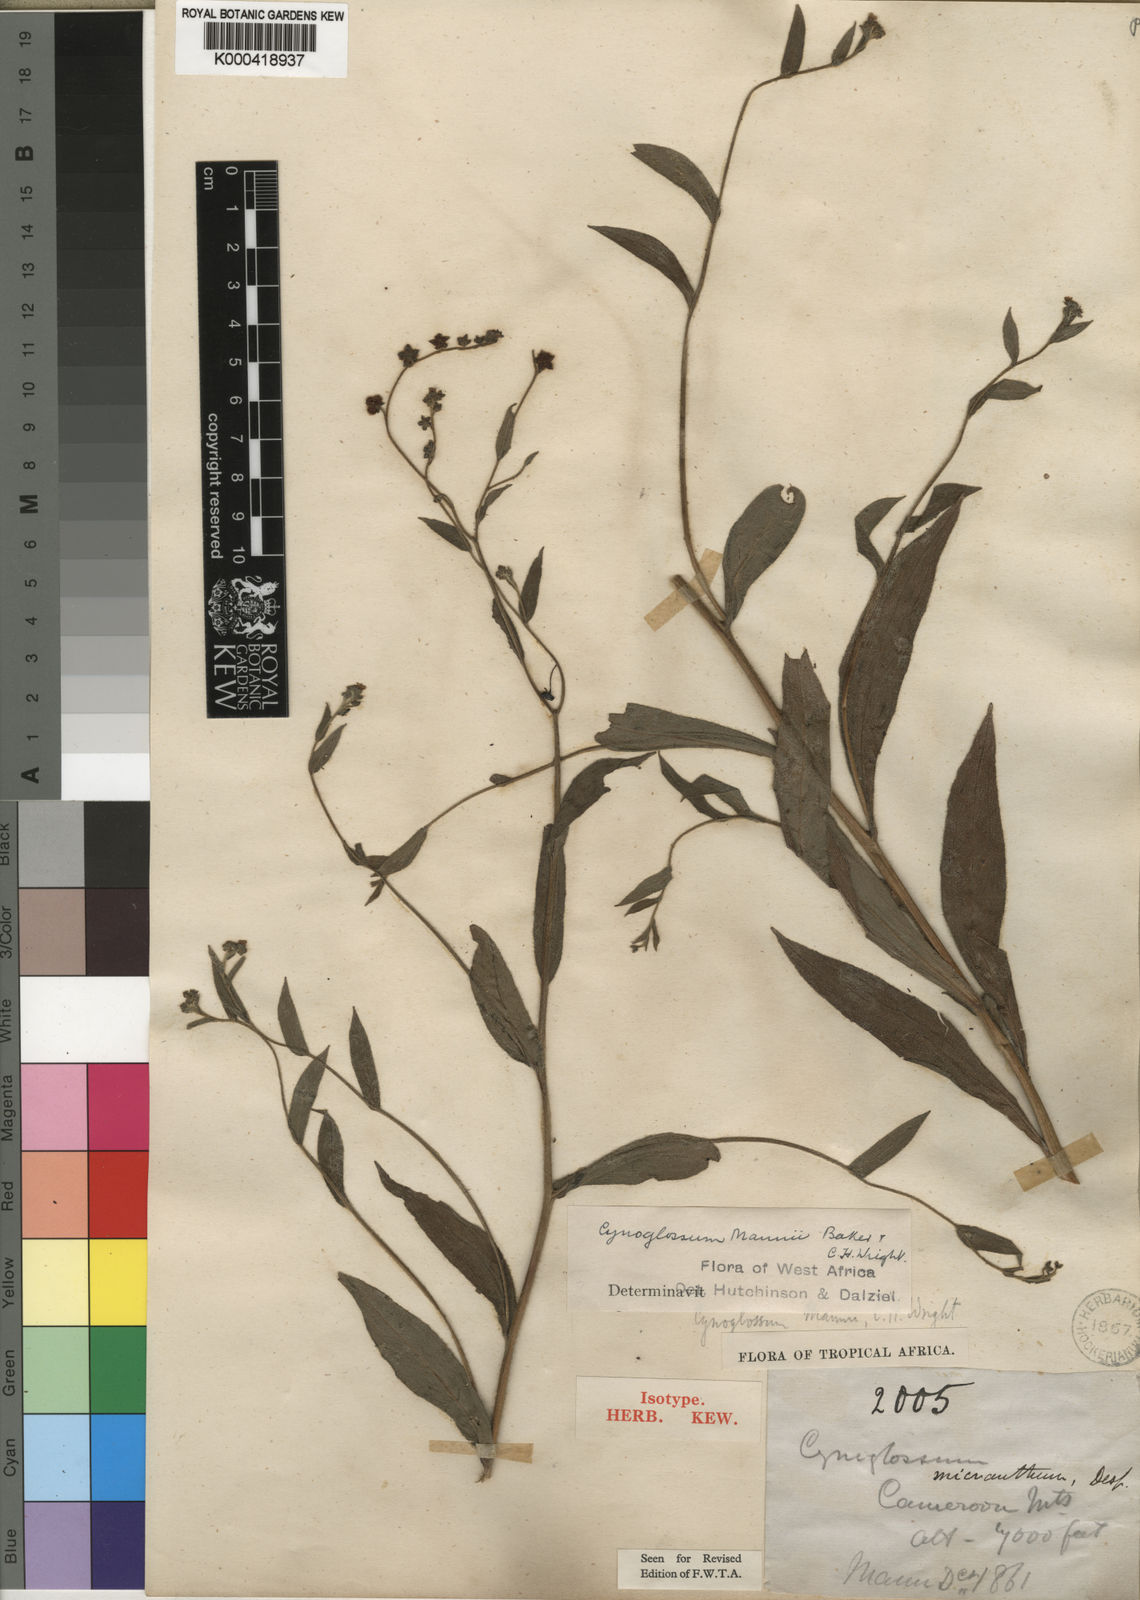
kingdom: Plantae
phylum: Tracheophyta
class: Magnoliopsida
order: Boraginales
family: Boraginaceae
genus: Cynoglossum
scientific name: Cynoglossum amplifolium
